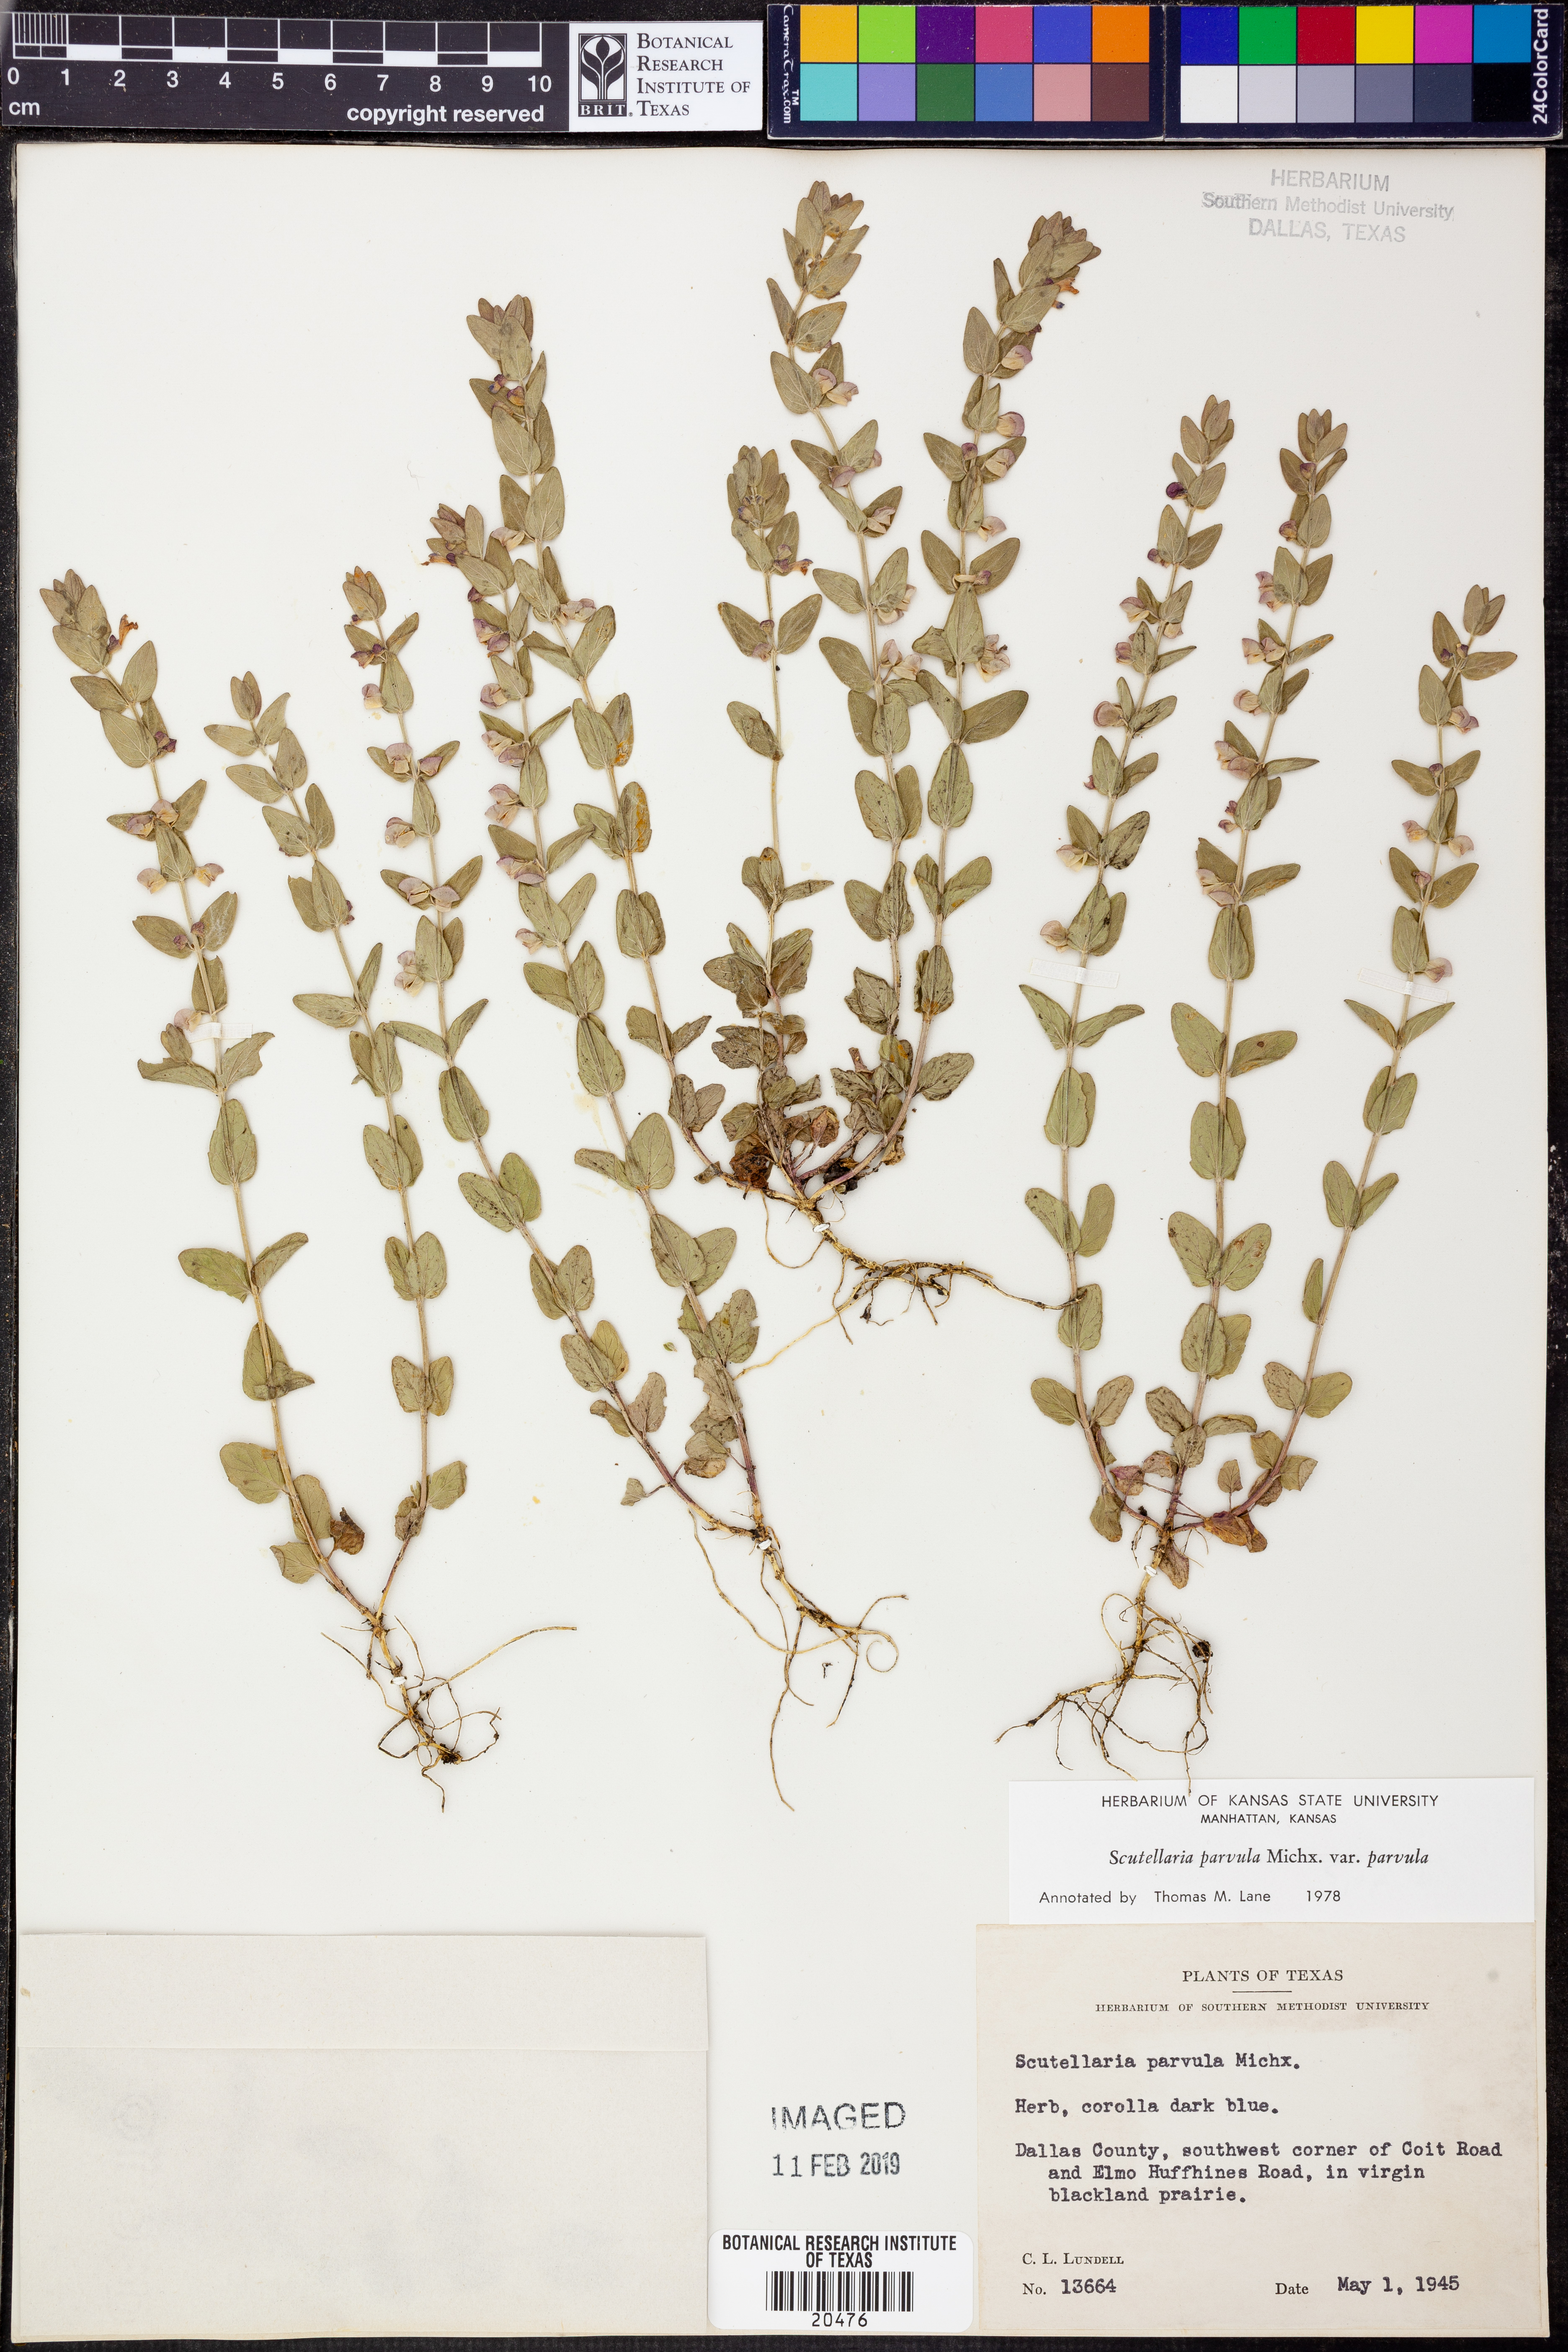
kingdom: Plantae
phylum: Tracheophyta
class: Magnoliopsida
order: Lamiales
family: Lamiaceae
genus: Scutellaria
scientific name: Scutellaria parvula
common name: Little scullcap
